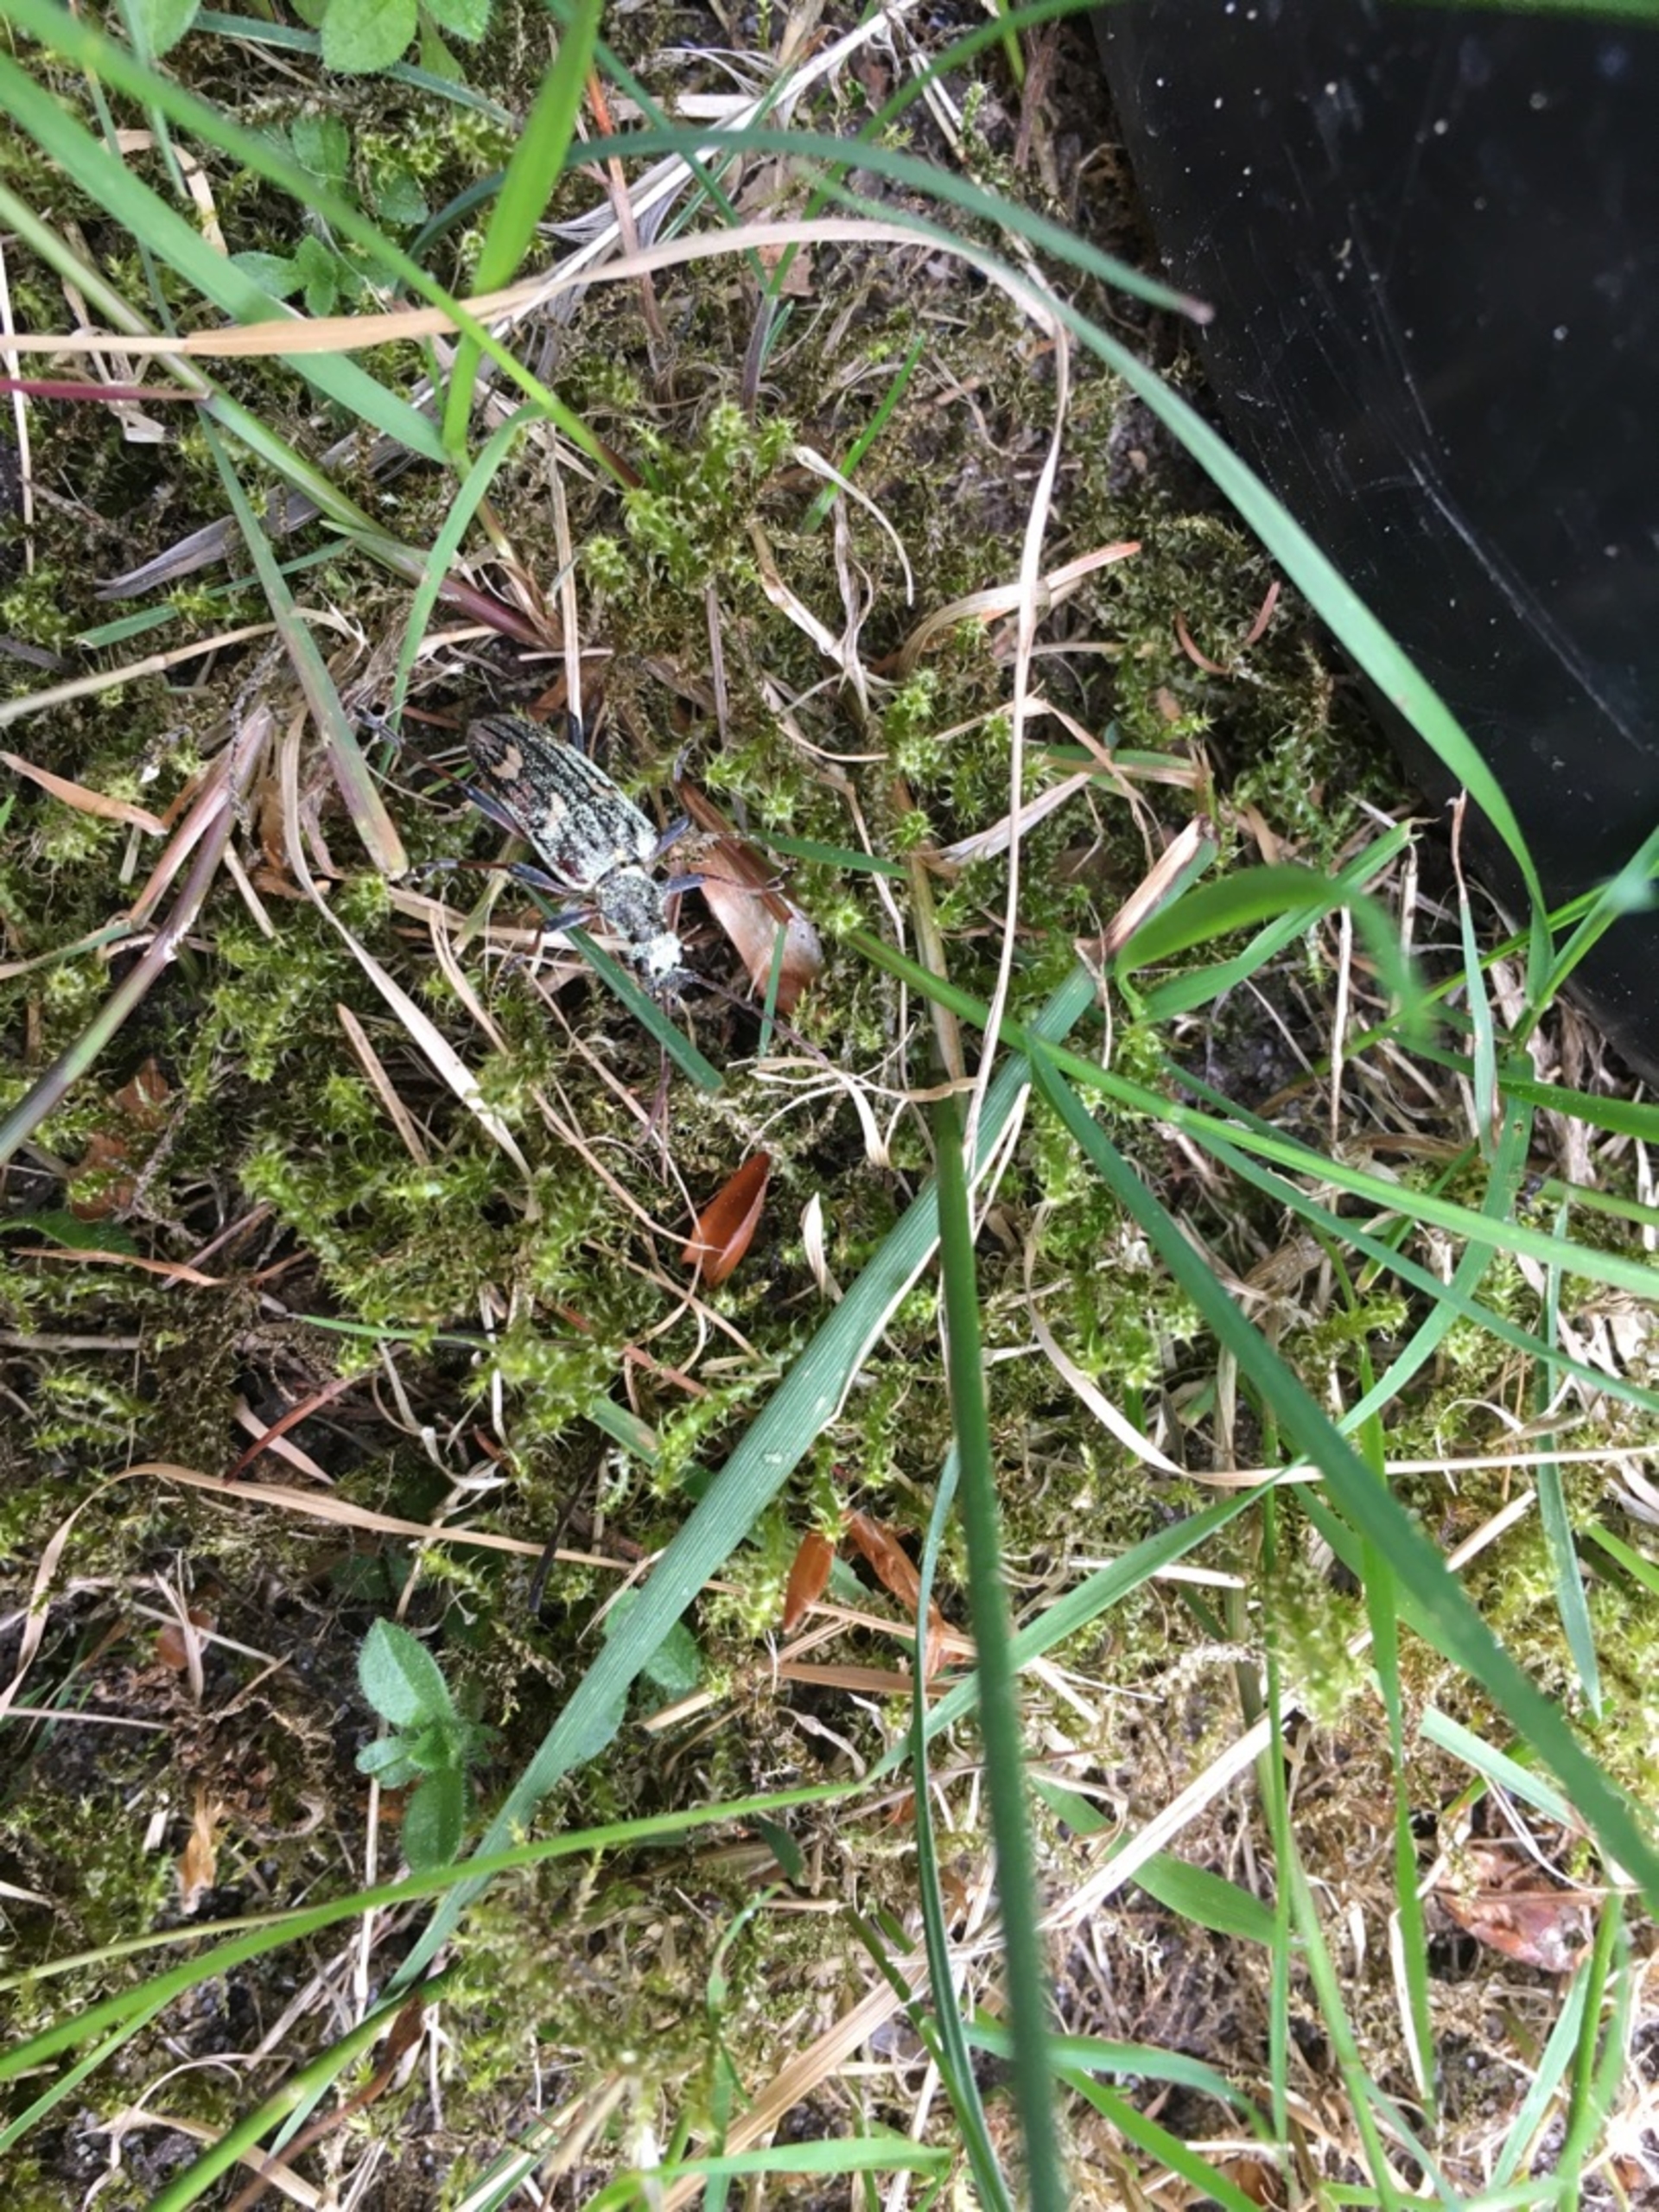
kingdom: Animalia
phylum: Arthropoda
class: Insecta
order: Coleoptera
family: Cerambycidae
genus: Rhagium
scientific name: Rhagium bifasciatum
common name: Båndet tandbuk
